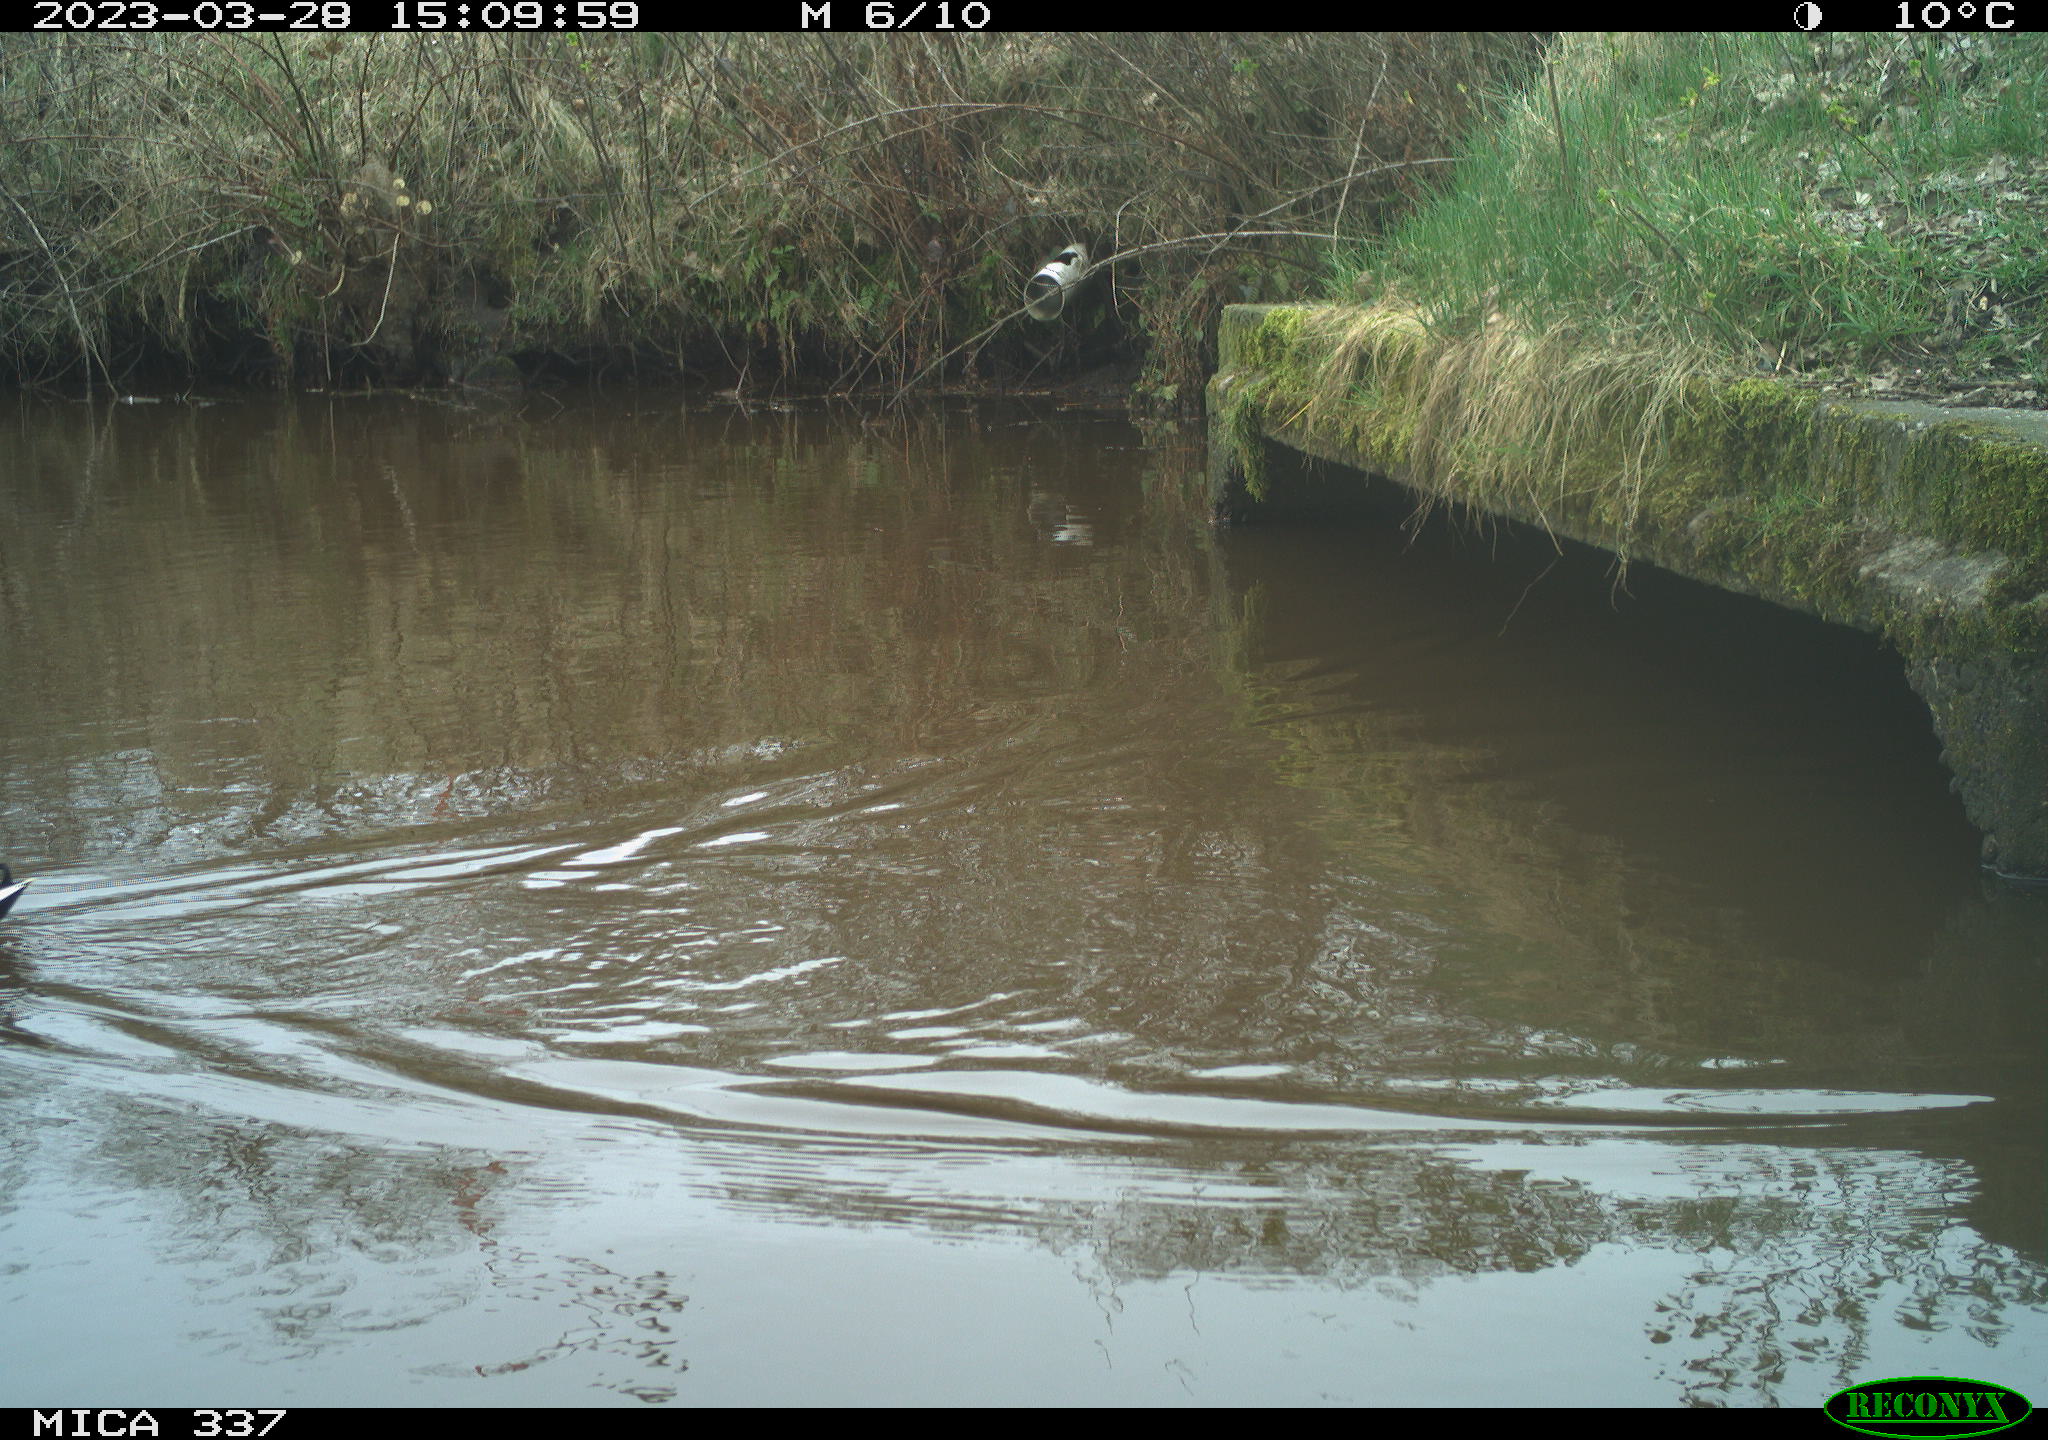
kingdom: Animalia
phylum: Chordata
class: Aves
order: Anseriformes
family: Anatidae
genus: Anas
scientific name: Anas
